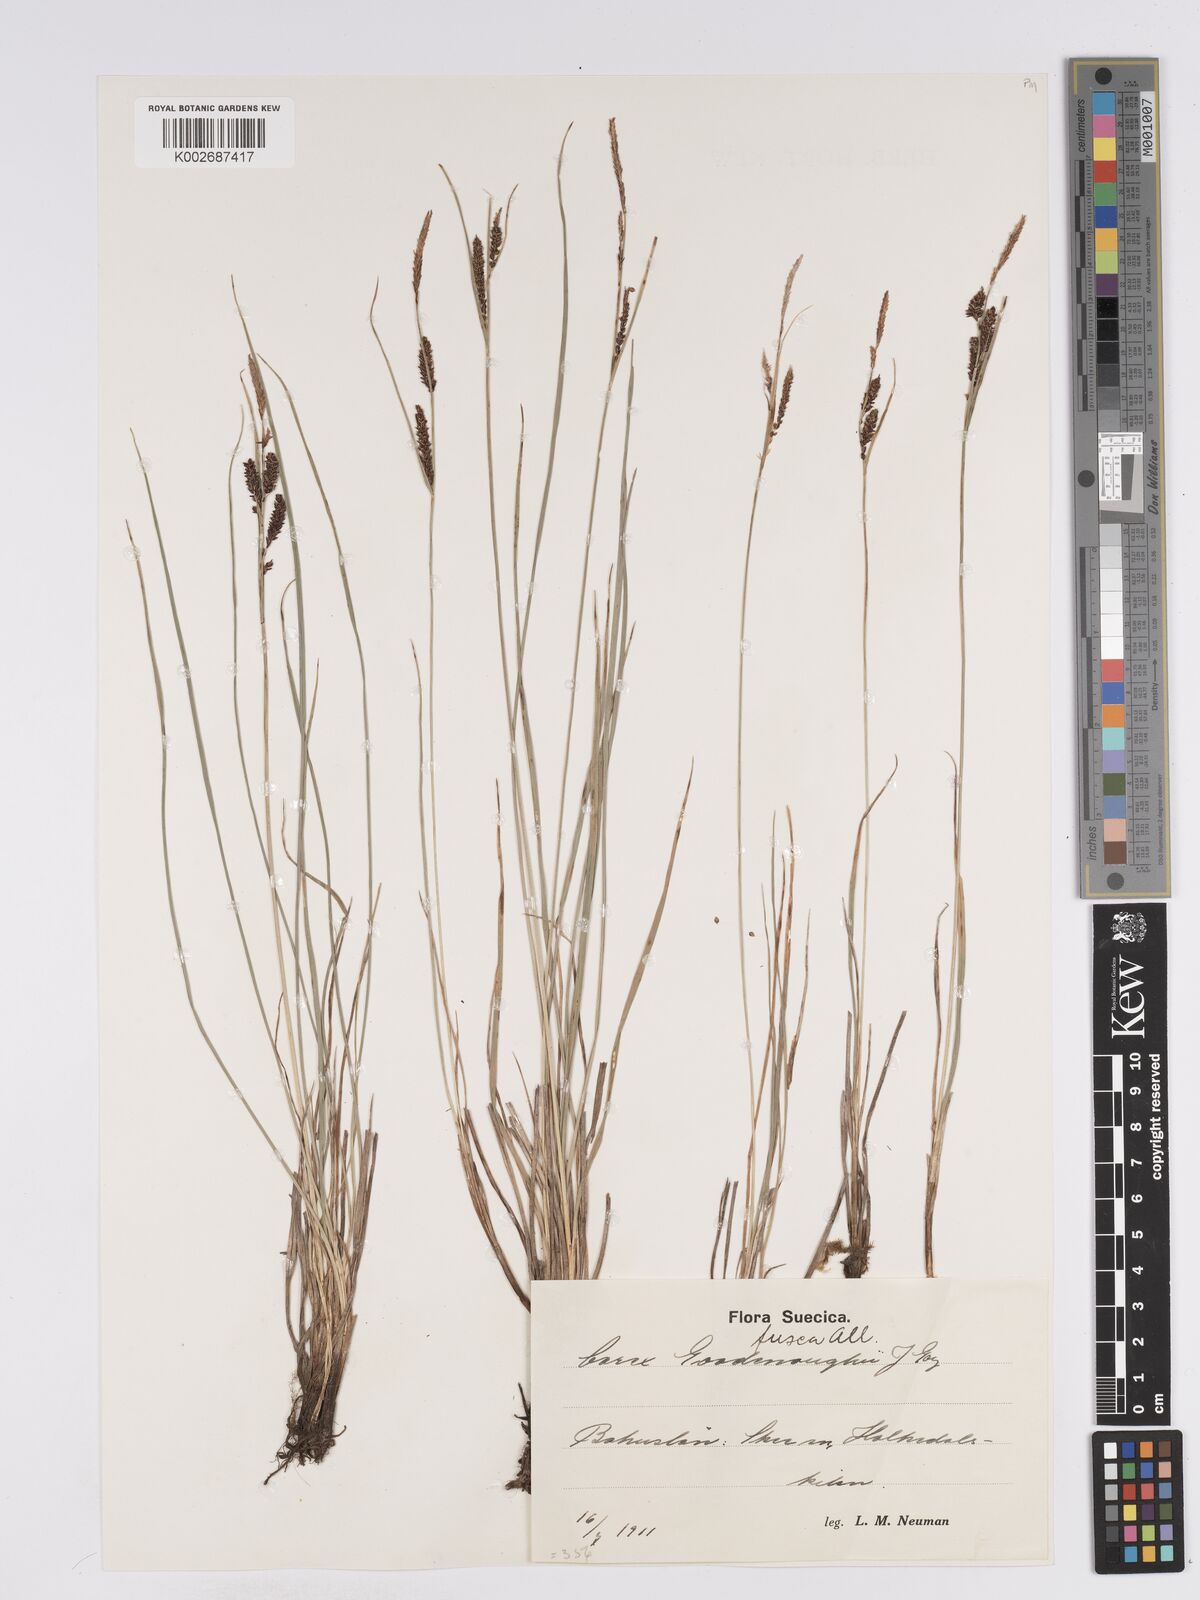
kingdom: Plantae
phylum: Tracheophyta
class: Liliopsida
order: Poales
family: Cyperaceae
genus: Carex
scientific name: Carex nigra
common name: Common sedge
